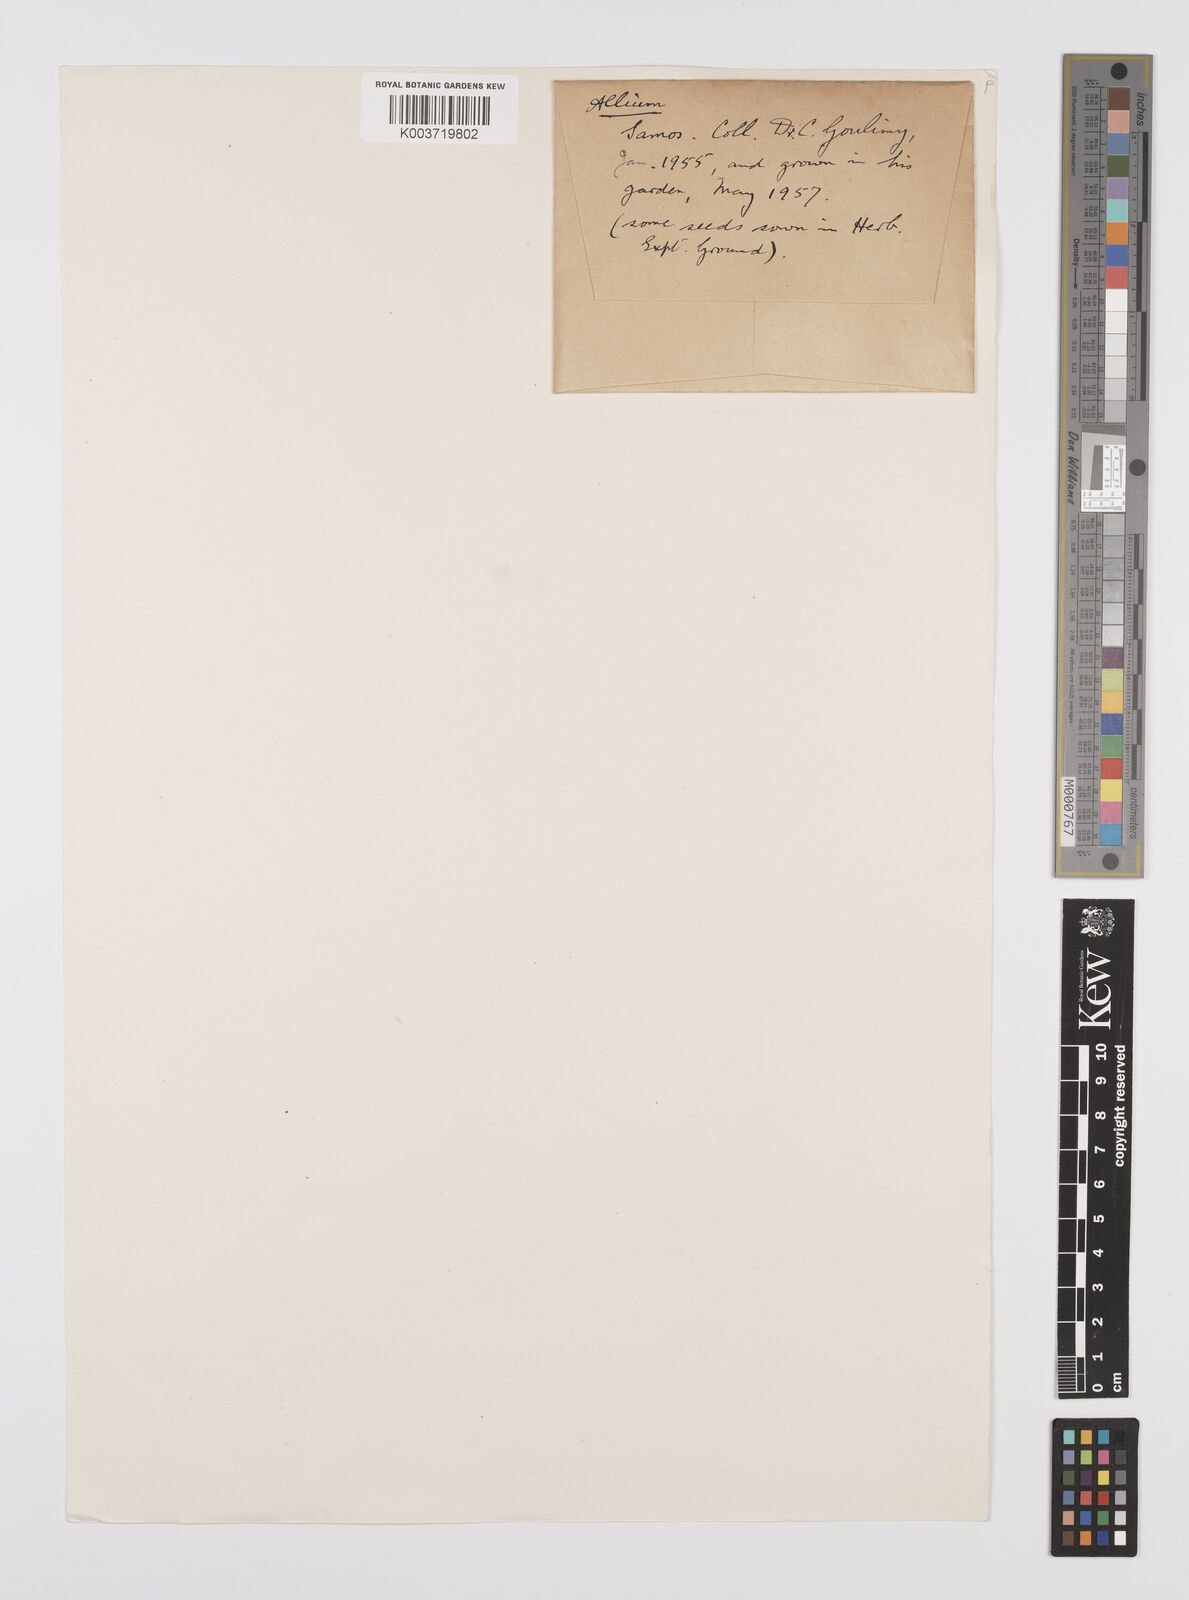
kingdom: Plantae
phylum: Tracheophyta
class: Liliopsida
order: Asparagales
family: Amaryllidaceae
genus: Allium
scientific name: Allium neapolitanum
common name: Neapolitan garlic
